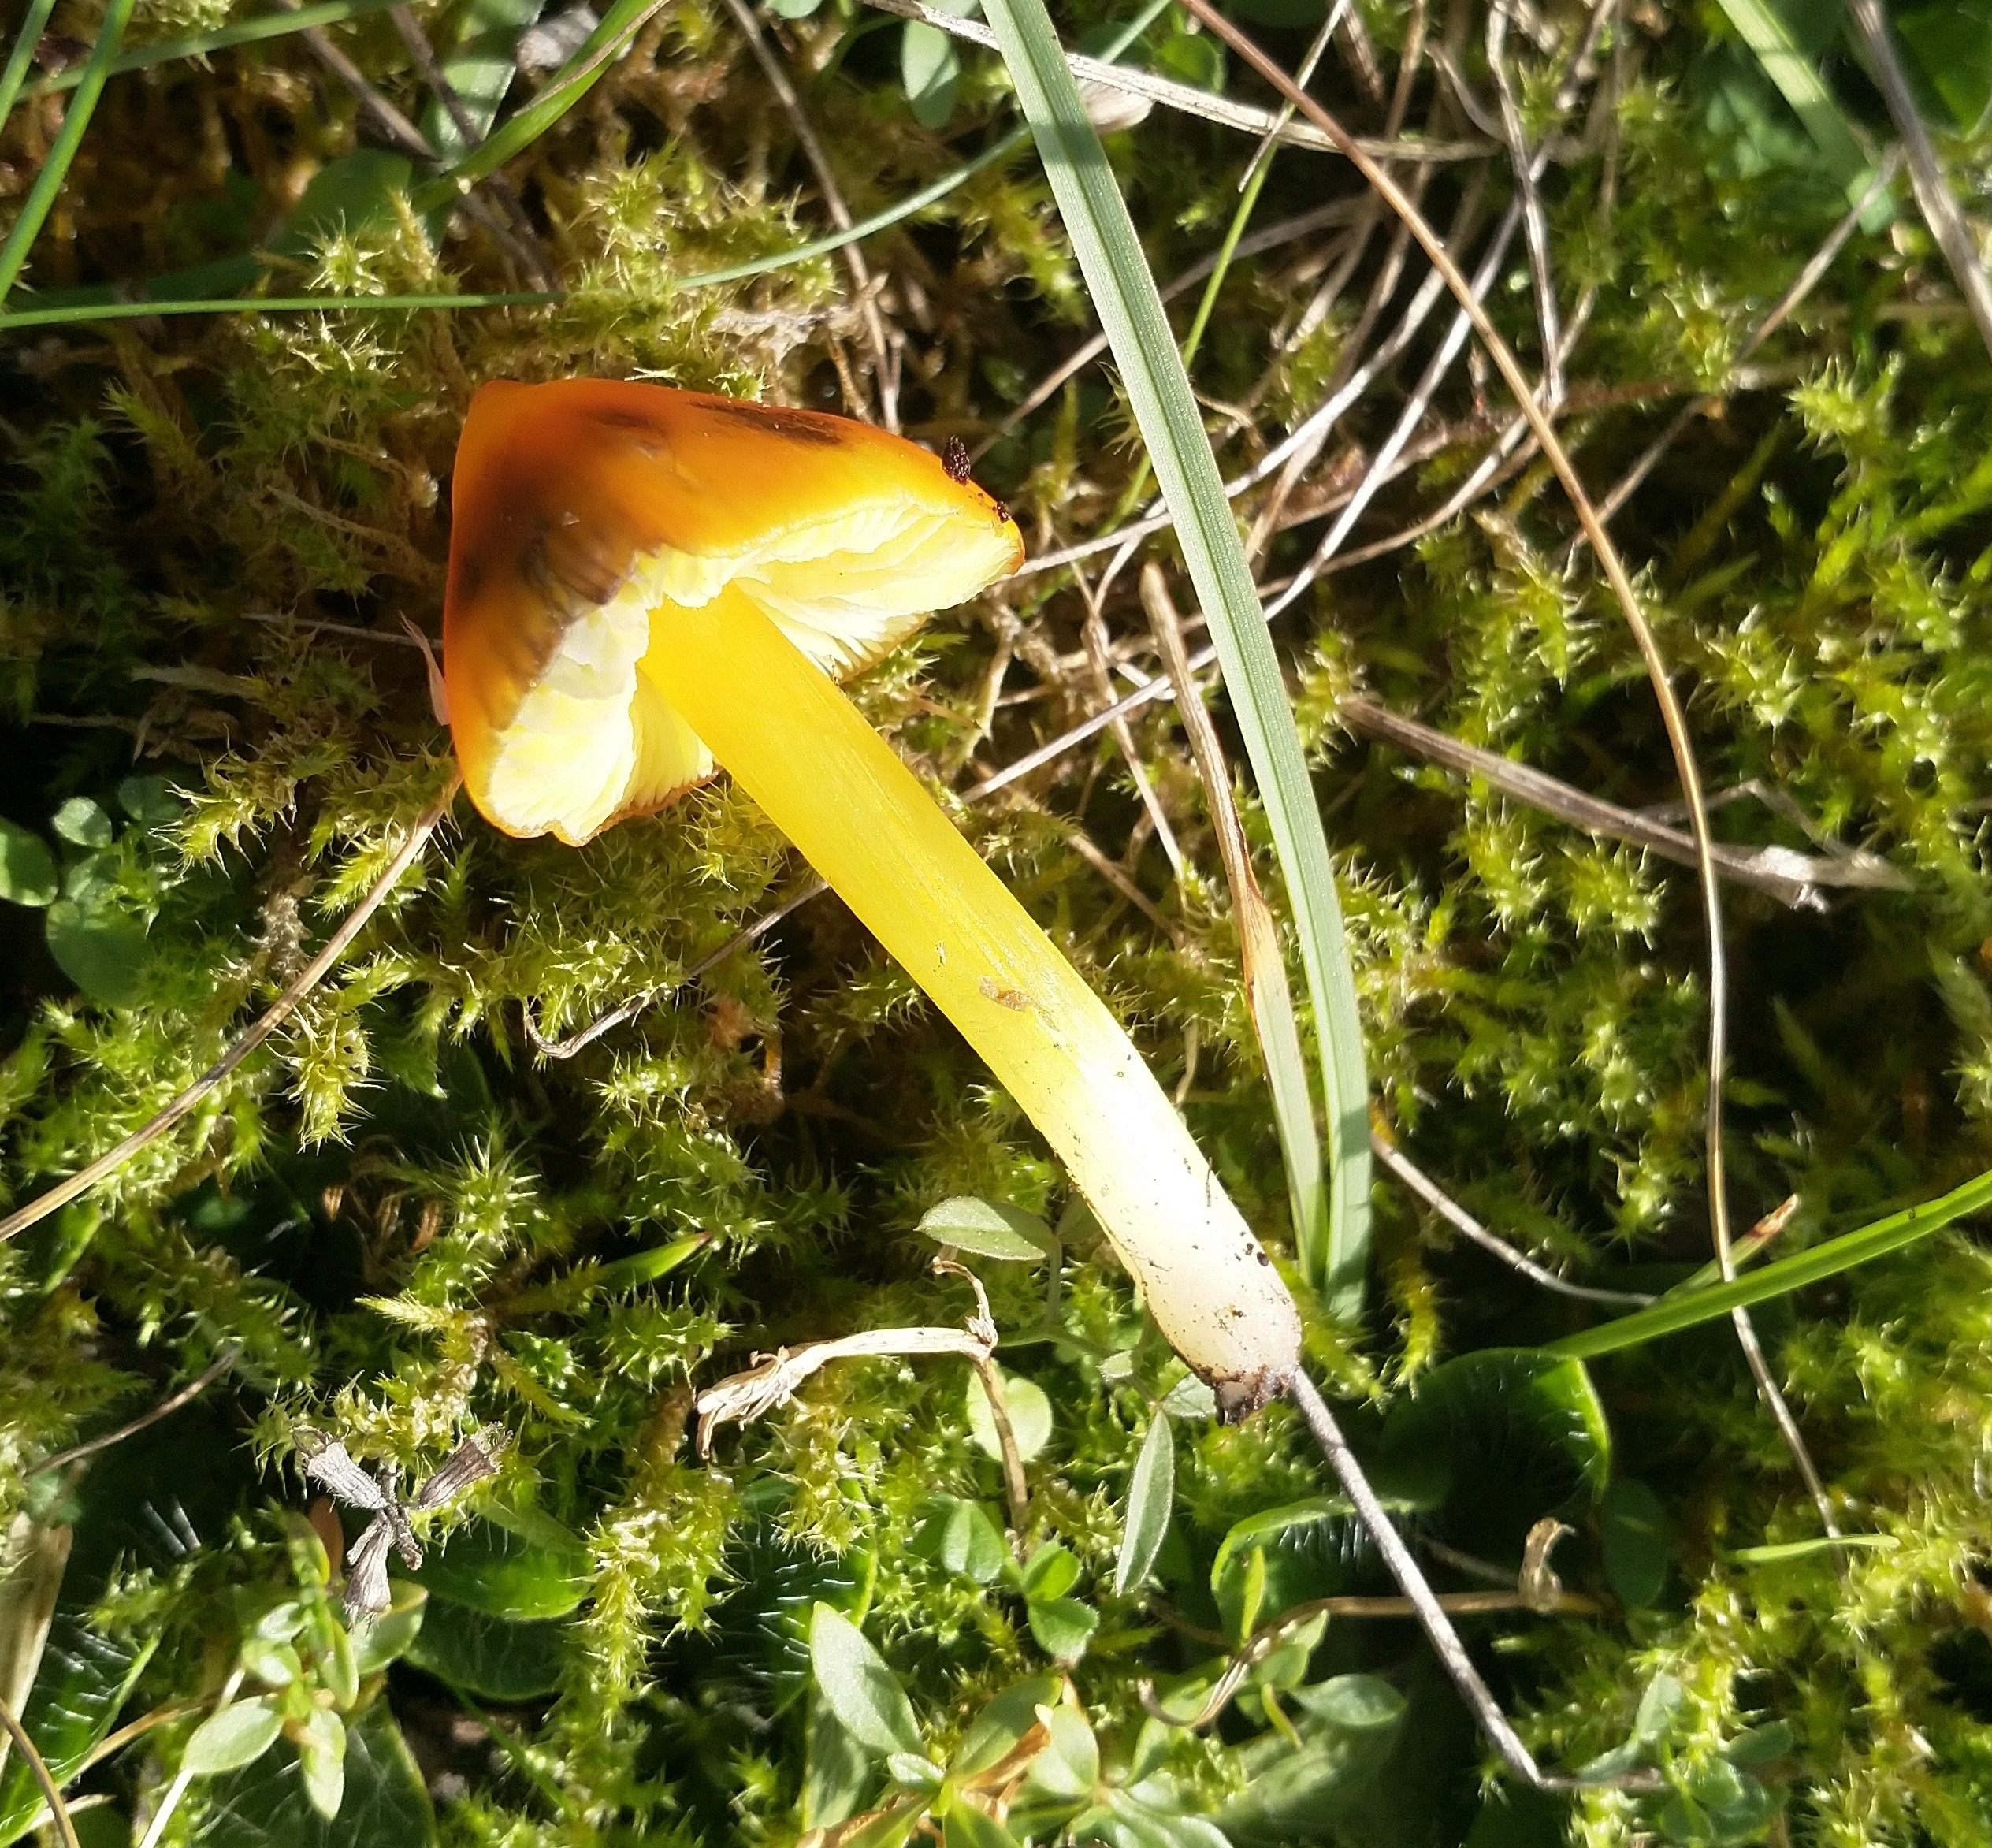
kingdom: Fungi
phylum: Basidiomycota
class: Agaricomycetes
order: Agaricales
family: Hygrophoraceae
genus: Hygrocybe
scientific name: Hygrocybe conica
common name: Kegle-vokshat
